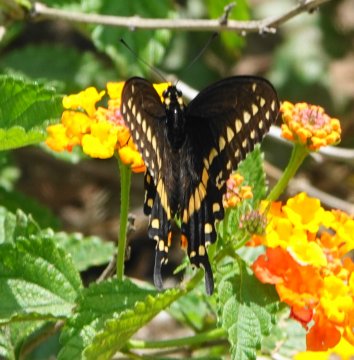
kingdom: Animalia
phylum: Arthropoda
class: Insecta
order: Lepidoptera
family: Papilionidae
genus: Papilio
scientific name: Papilio polyxenes
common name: Black Swallowtail
